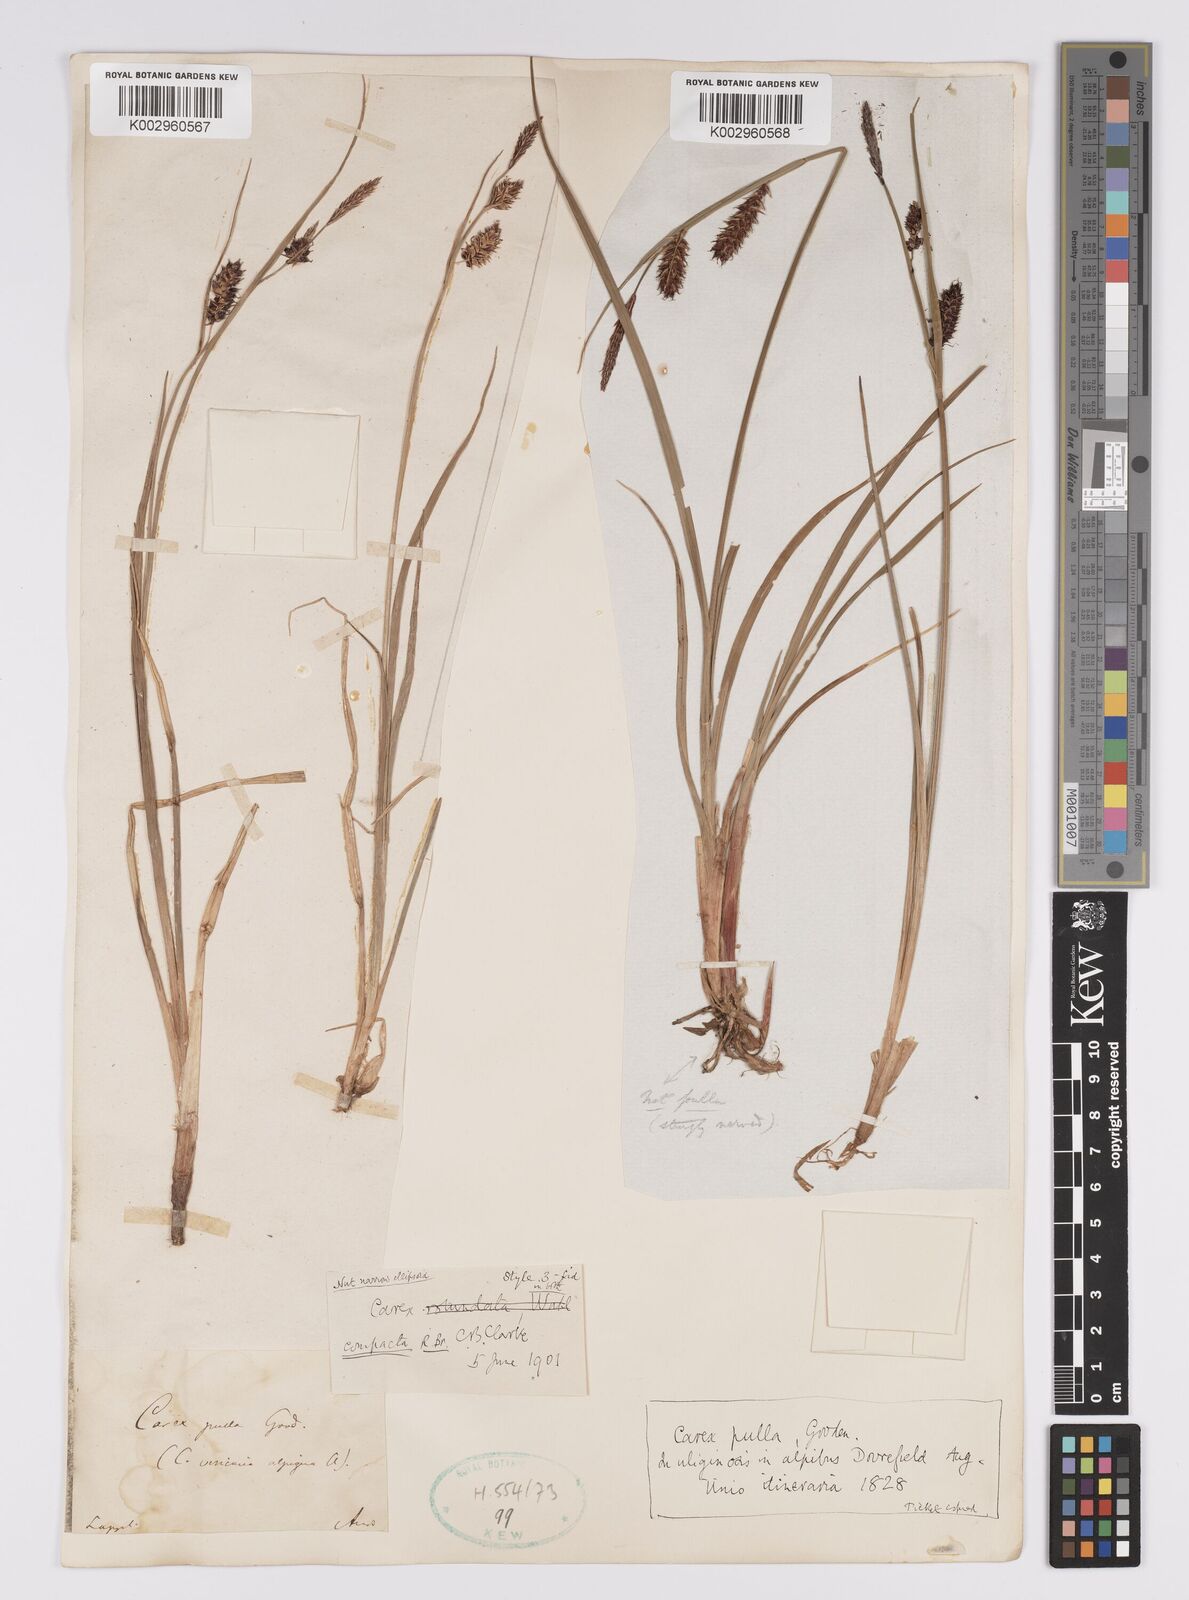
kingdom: Plantae
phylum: Tracheophyta
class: Liliopsida
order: Poales
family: Cyperaceae
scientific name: Cyperaceae
